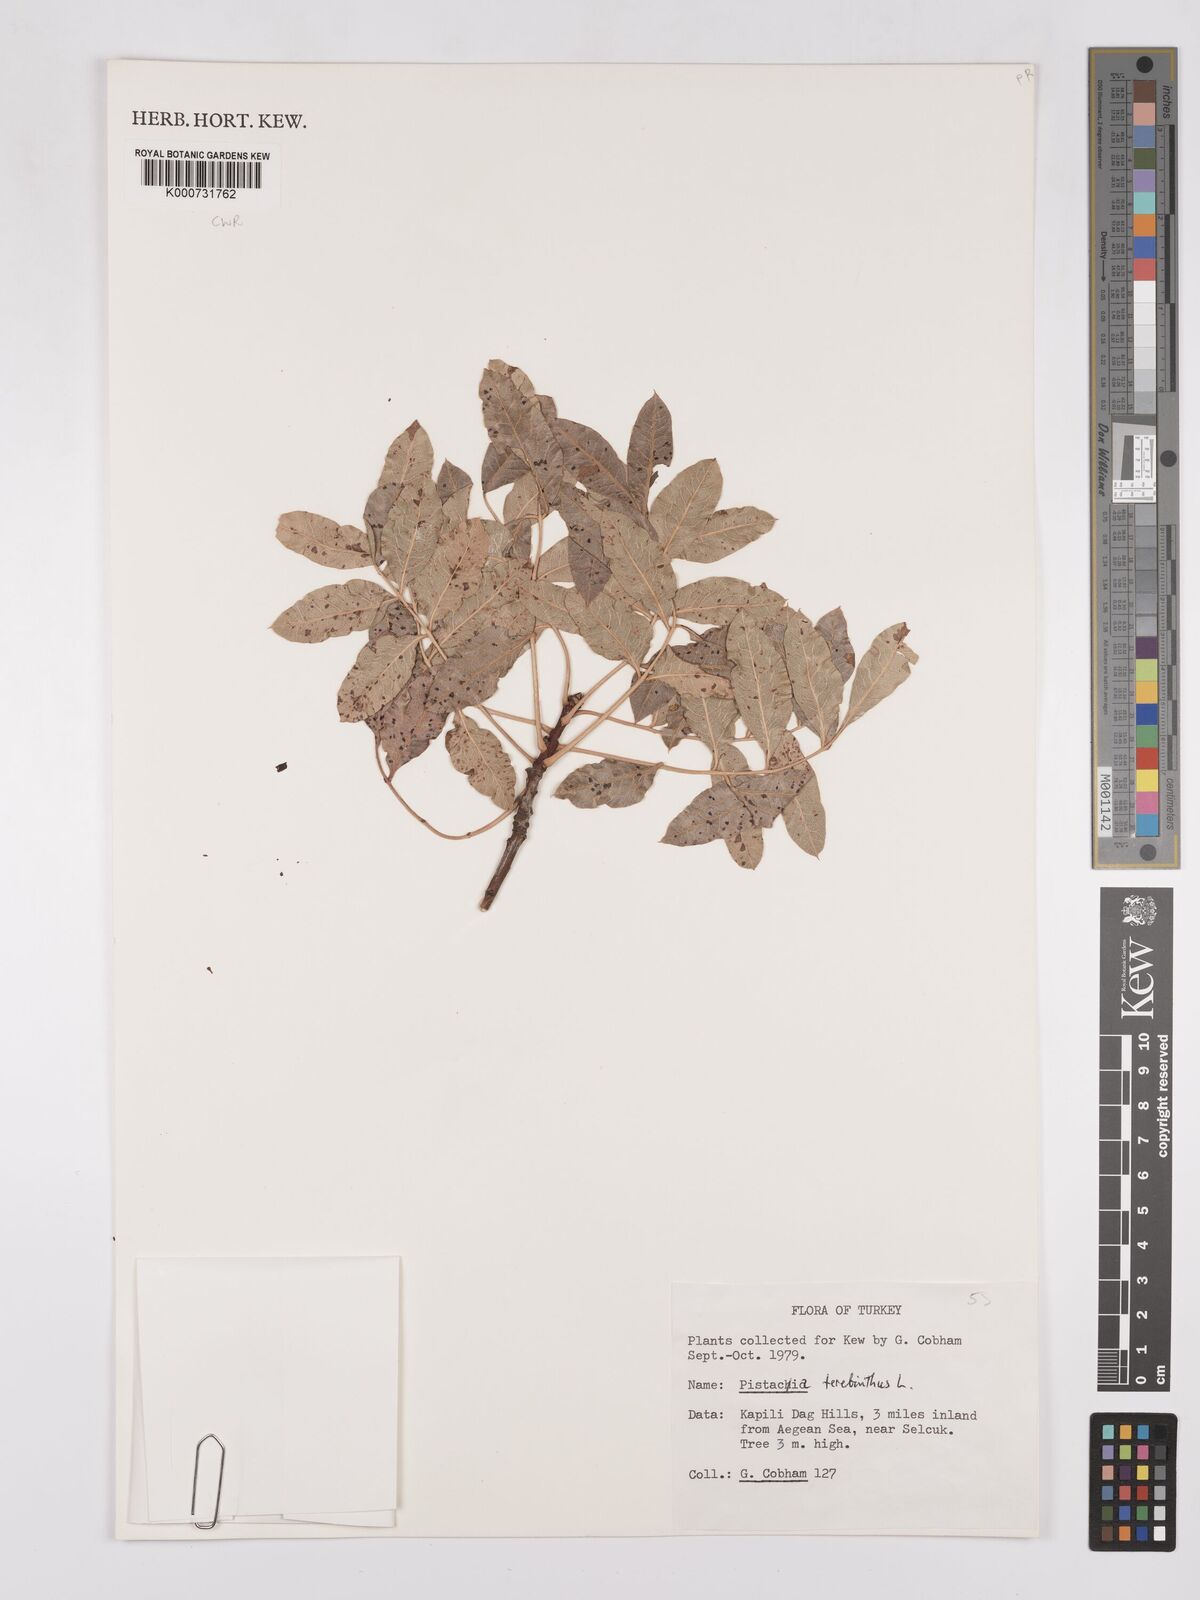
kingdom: Plantae
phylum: Tracheophyta
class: Magnoliopsida
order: Sapindales
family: Anacardiaceae
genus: Pistacia
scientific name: Pistacia terebinthus
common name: Terebinth
